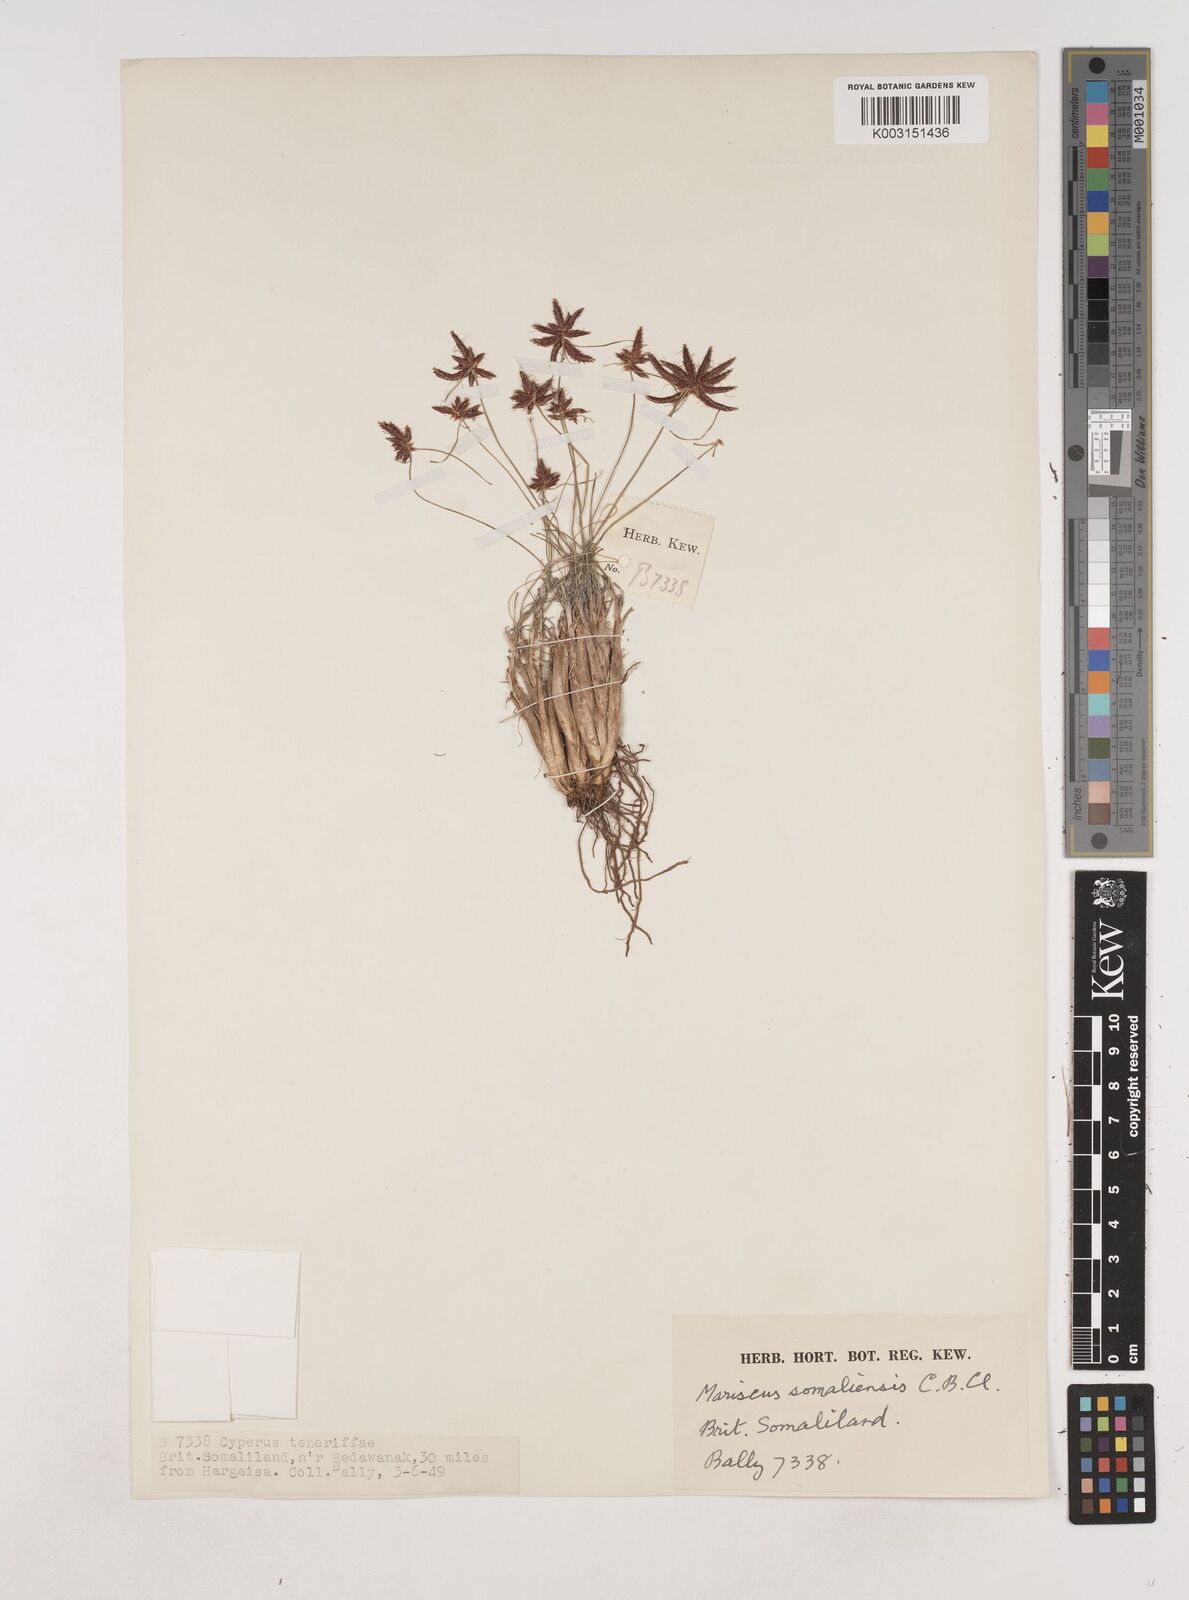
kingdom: Plantae
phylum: Tracheophyta
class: Liliopsida
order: Poales
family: Cyperaceae
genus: Cyperus
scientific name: Cyperus pseudosomaliensis
